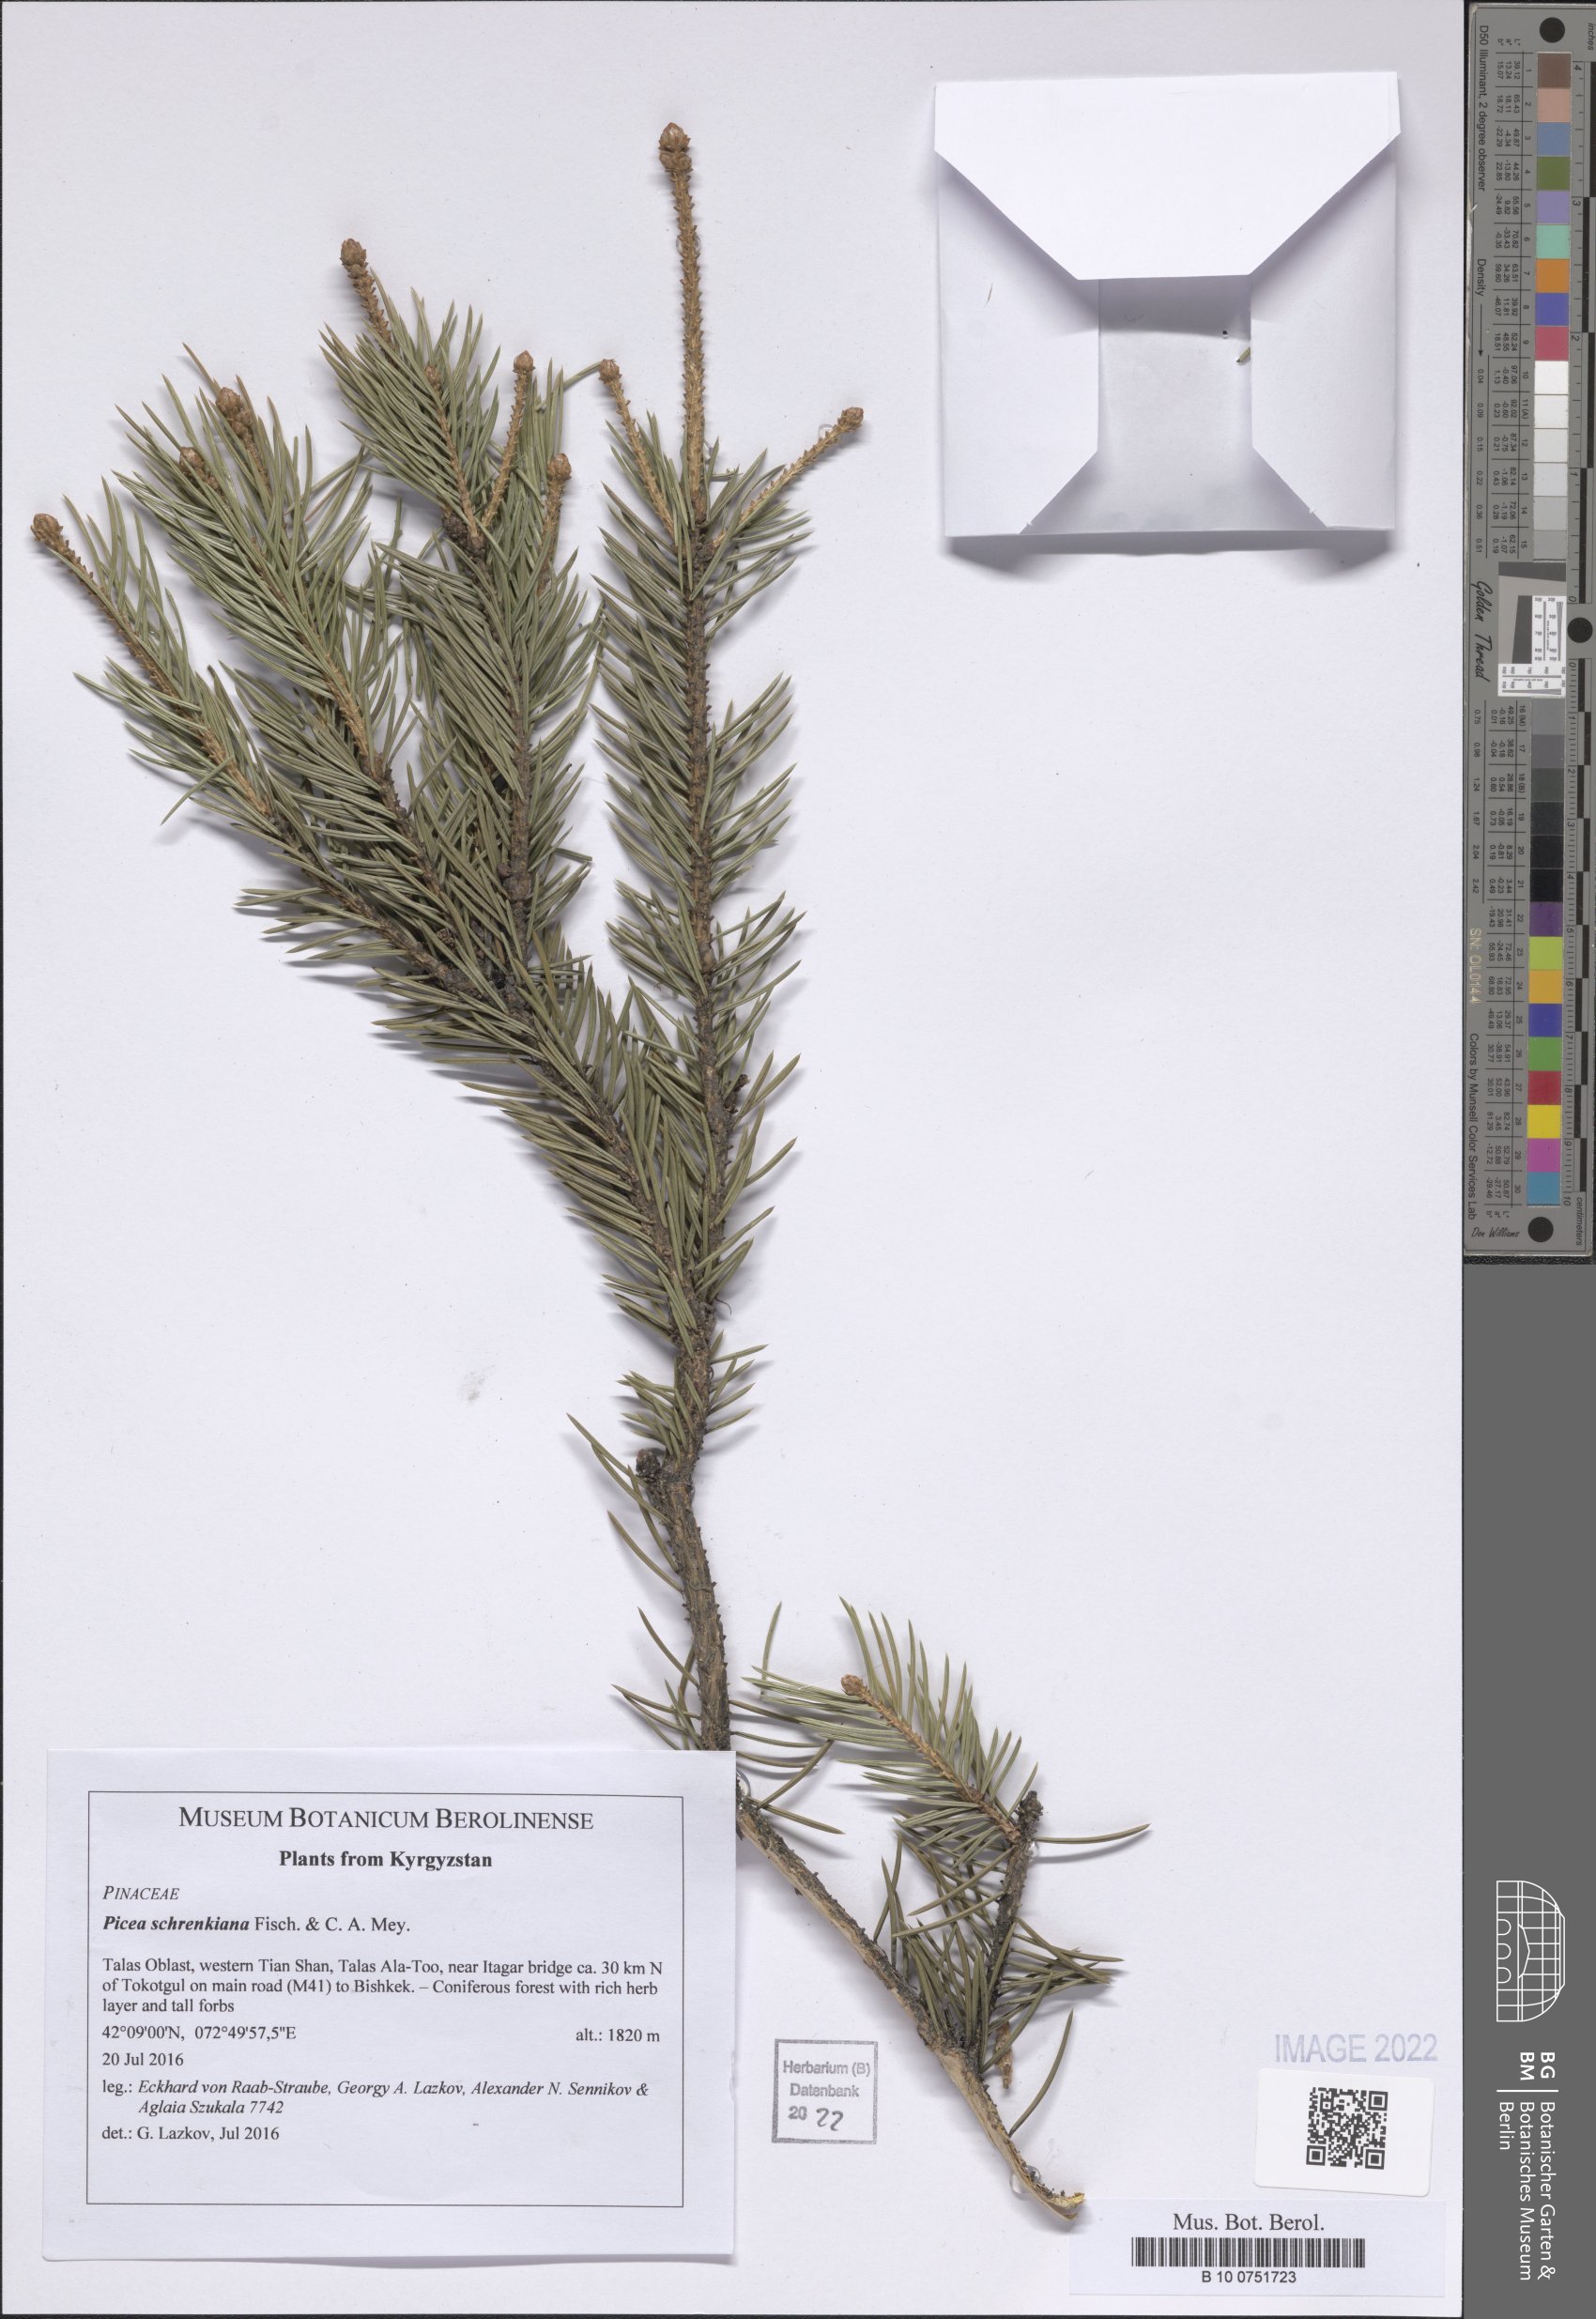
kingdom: Plantae
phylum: Tracheophyta
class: Pinopsida
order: Pinales
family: Pinaceae
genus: Picea
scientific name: Picea schrenkiana
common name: Asian spruce
